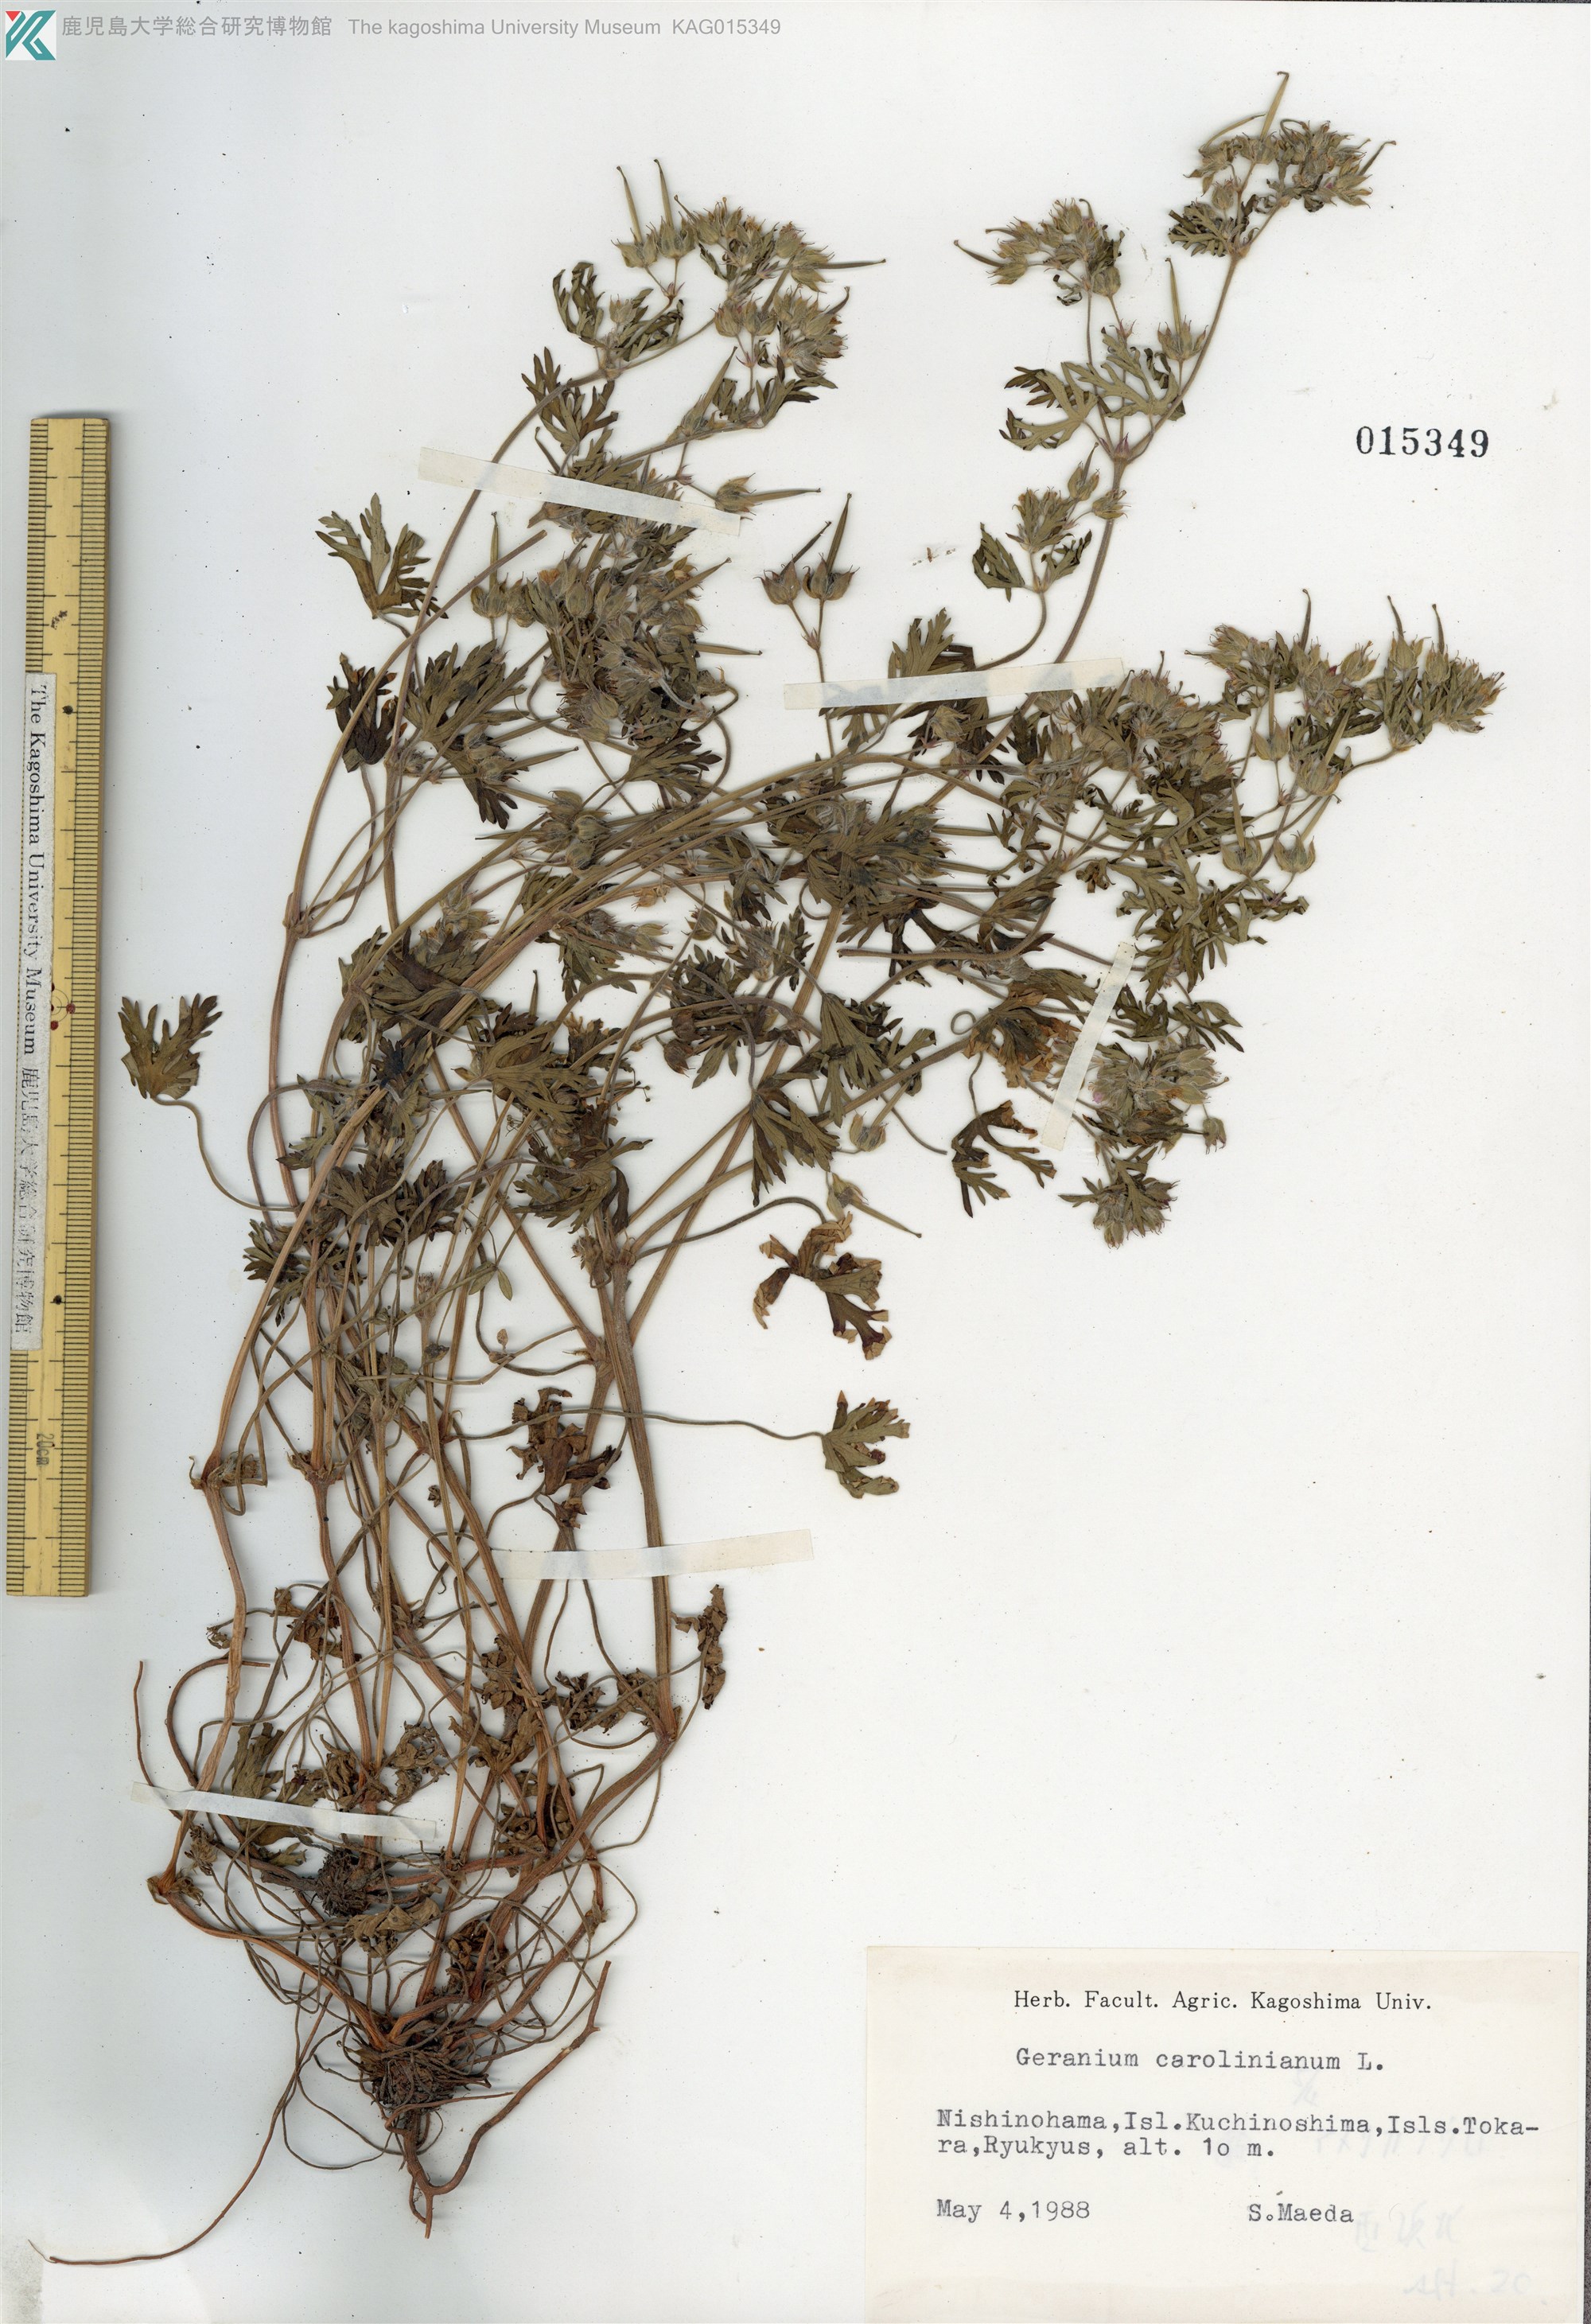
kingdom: Plantae
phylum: Tracheophyta
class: Magnoliopsida
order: Geraniales
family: Geraniaceae
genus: Geranium
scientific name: Geranium carolinianum
